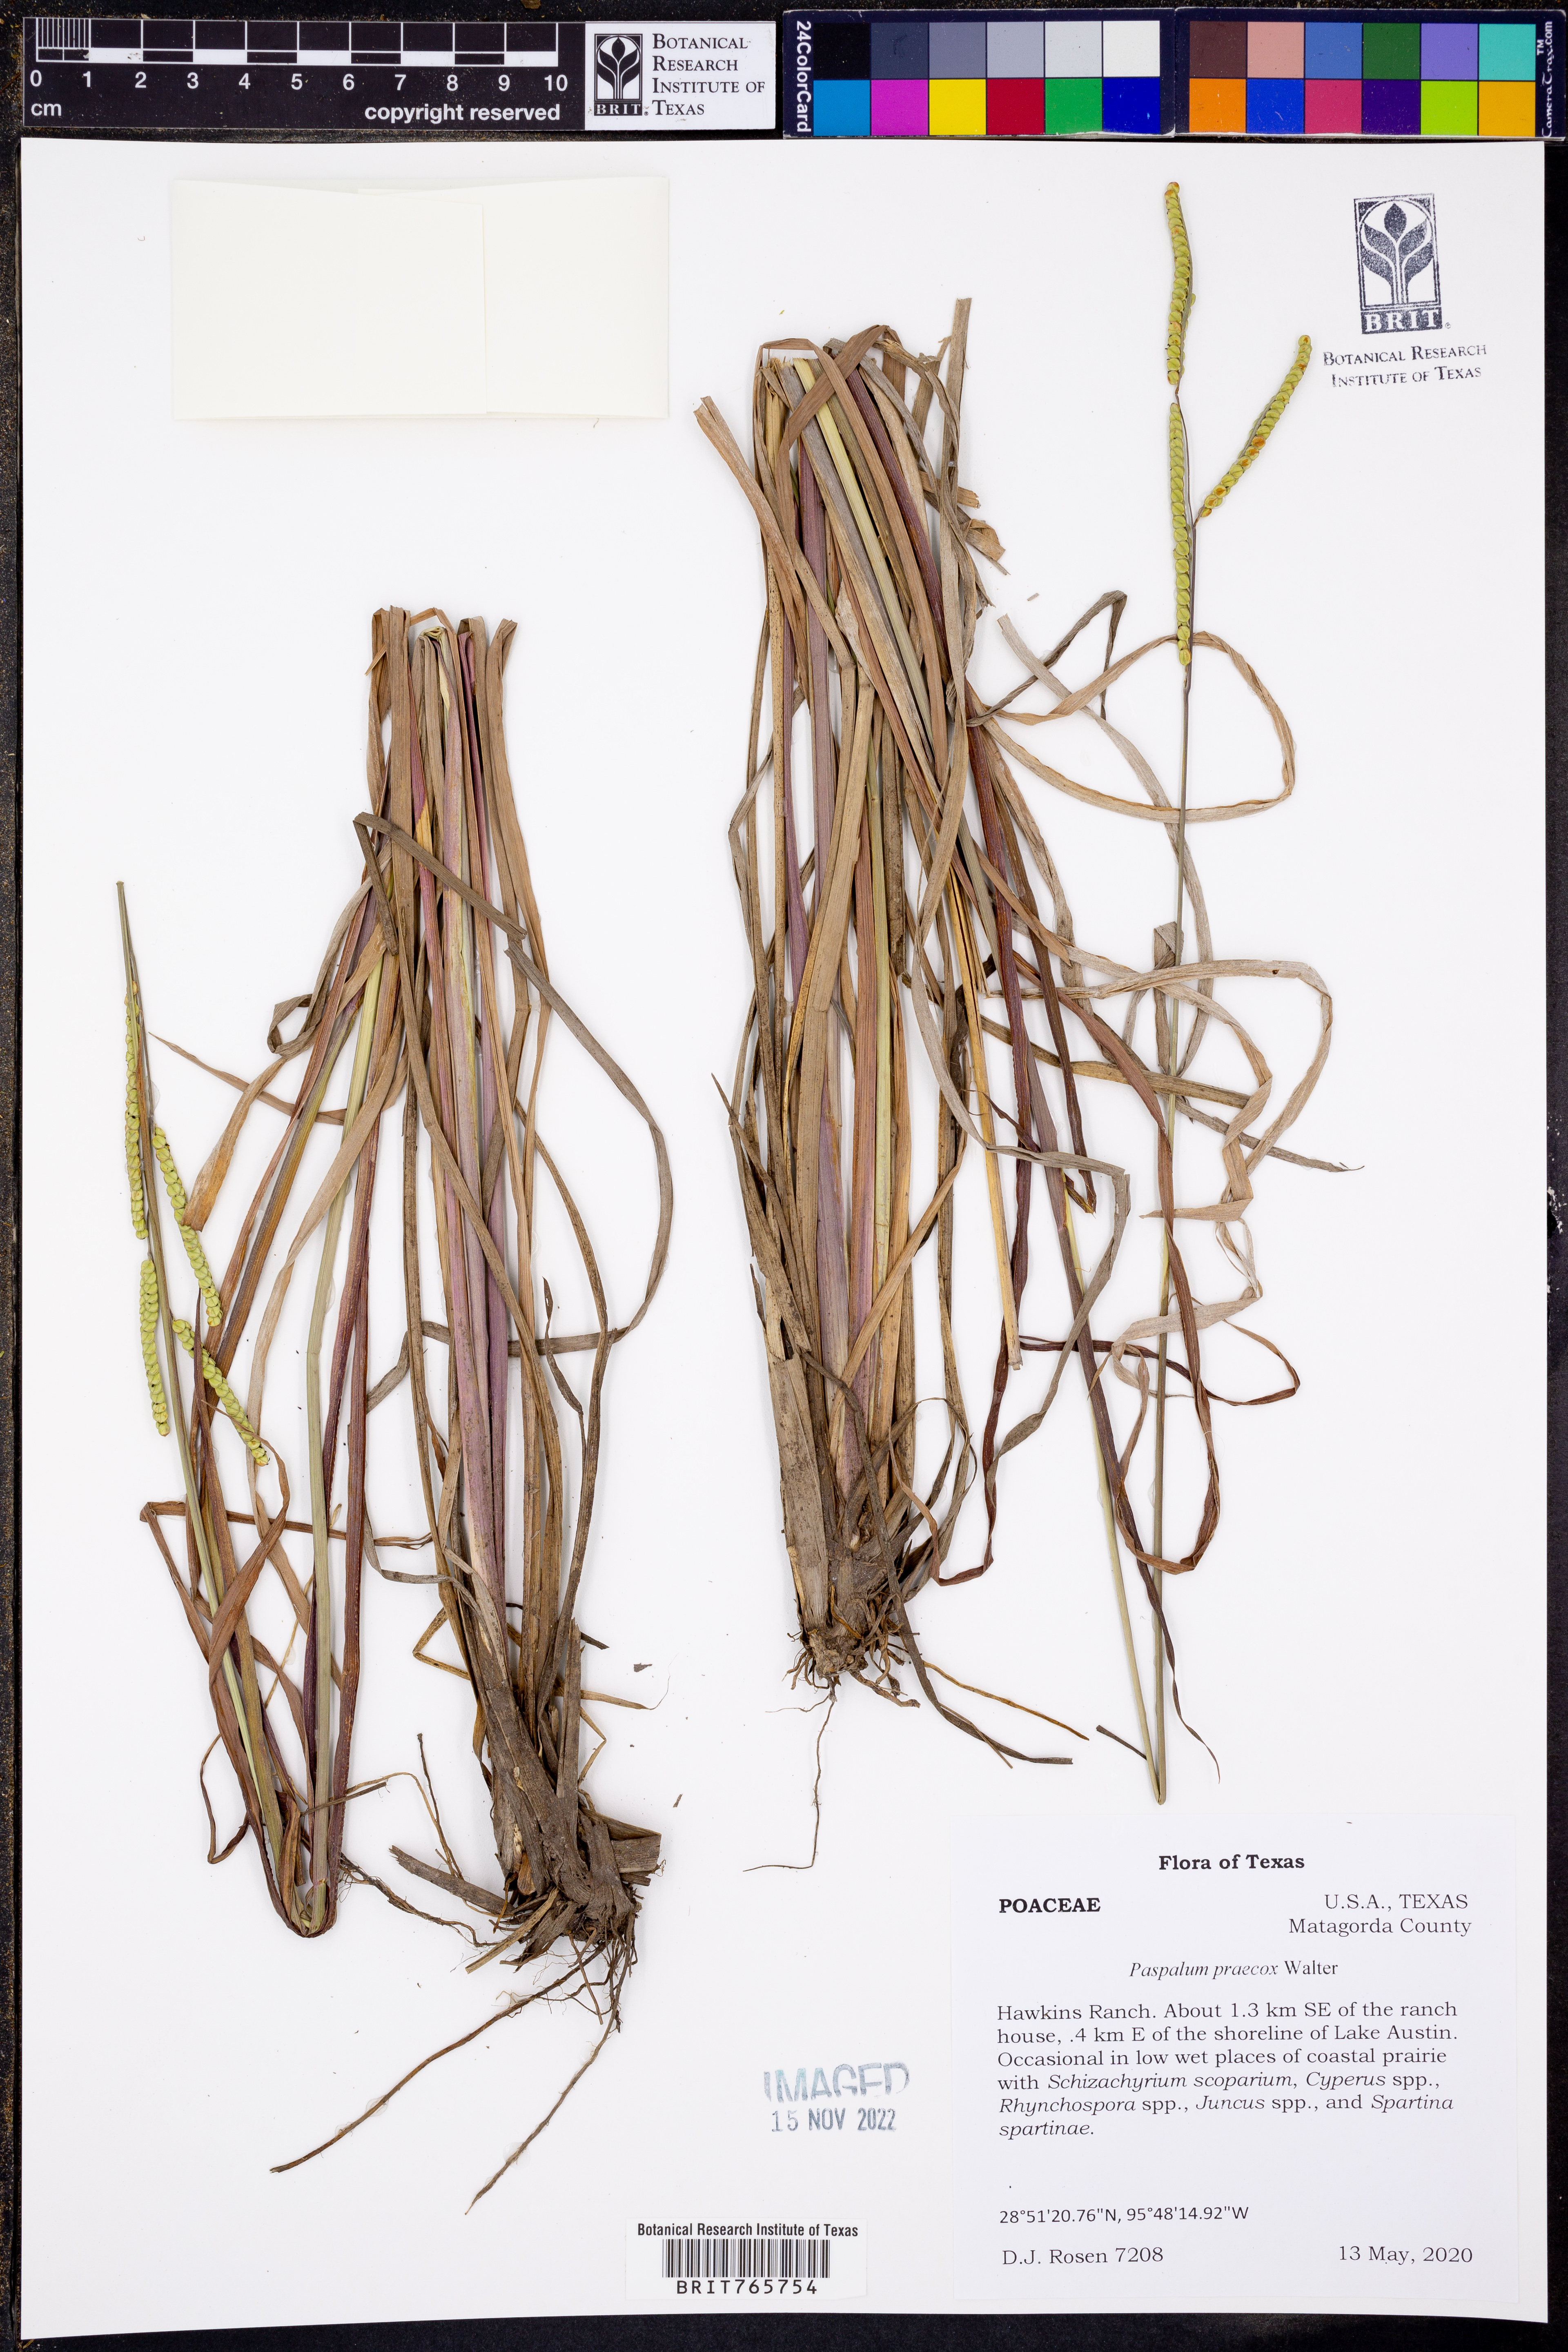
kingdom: Plantae
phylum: Tracheophyta
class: Liliopsida
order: Poales
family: Poaceae
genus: Paspalum
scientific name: Paspalum praecox
